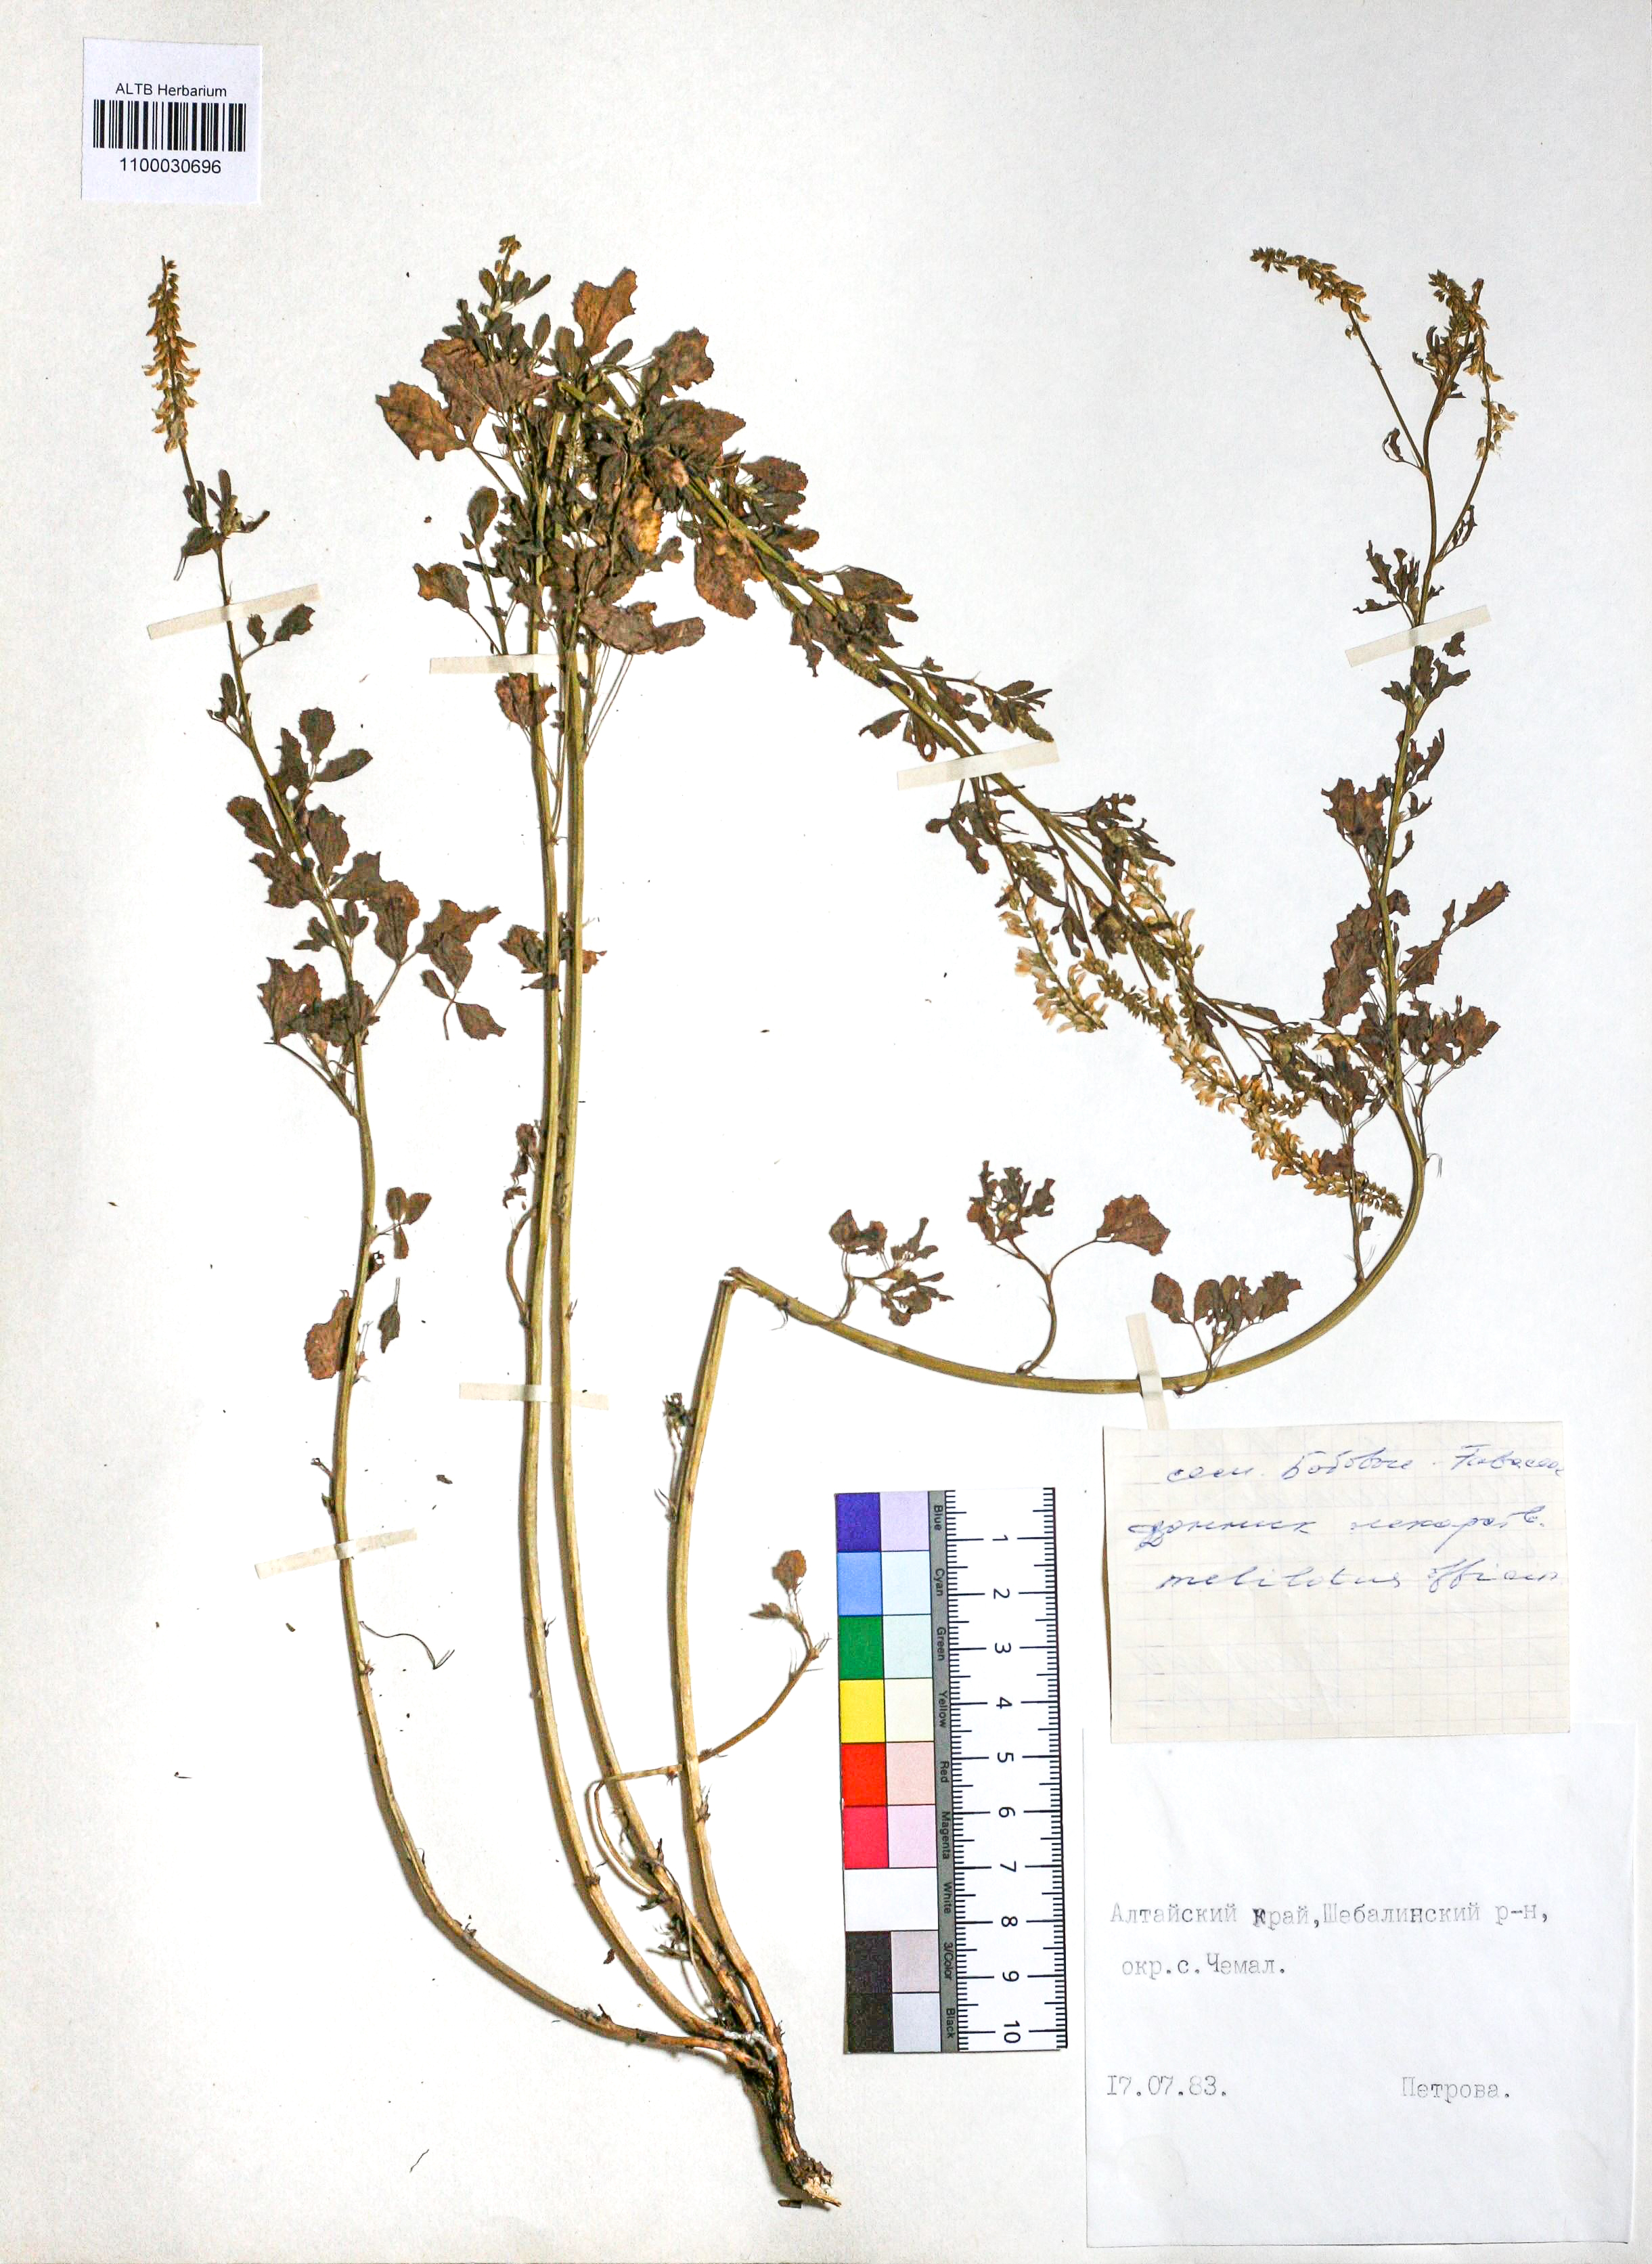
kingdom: Plantae
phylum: Tracheophyta
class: Magnoliopsida
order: Fabales
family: Fabaceae
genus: Melilotus
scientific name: Melilotus officinalis
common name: Sweetclover
